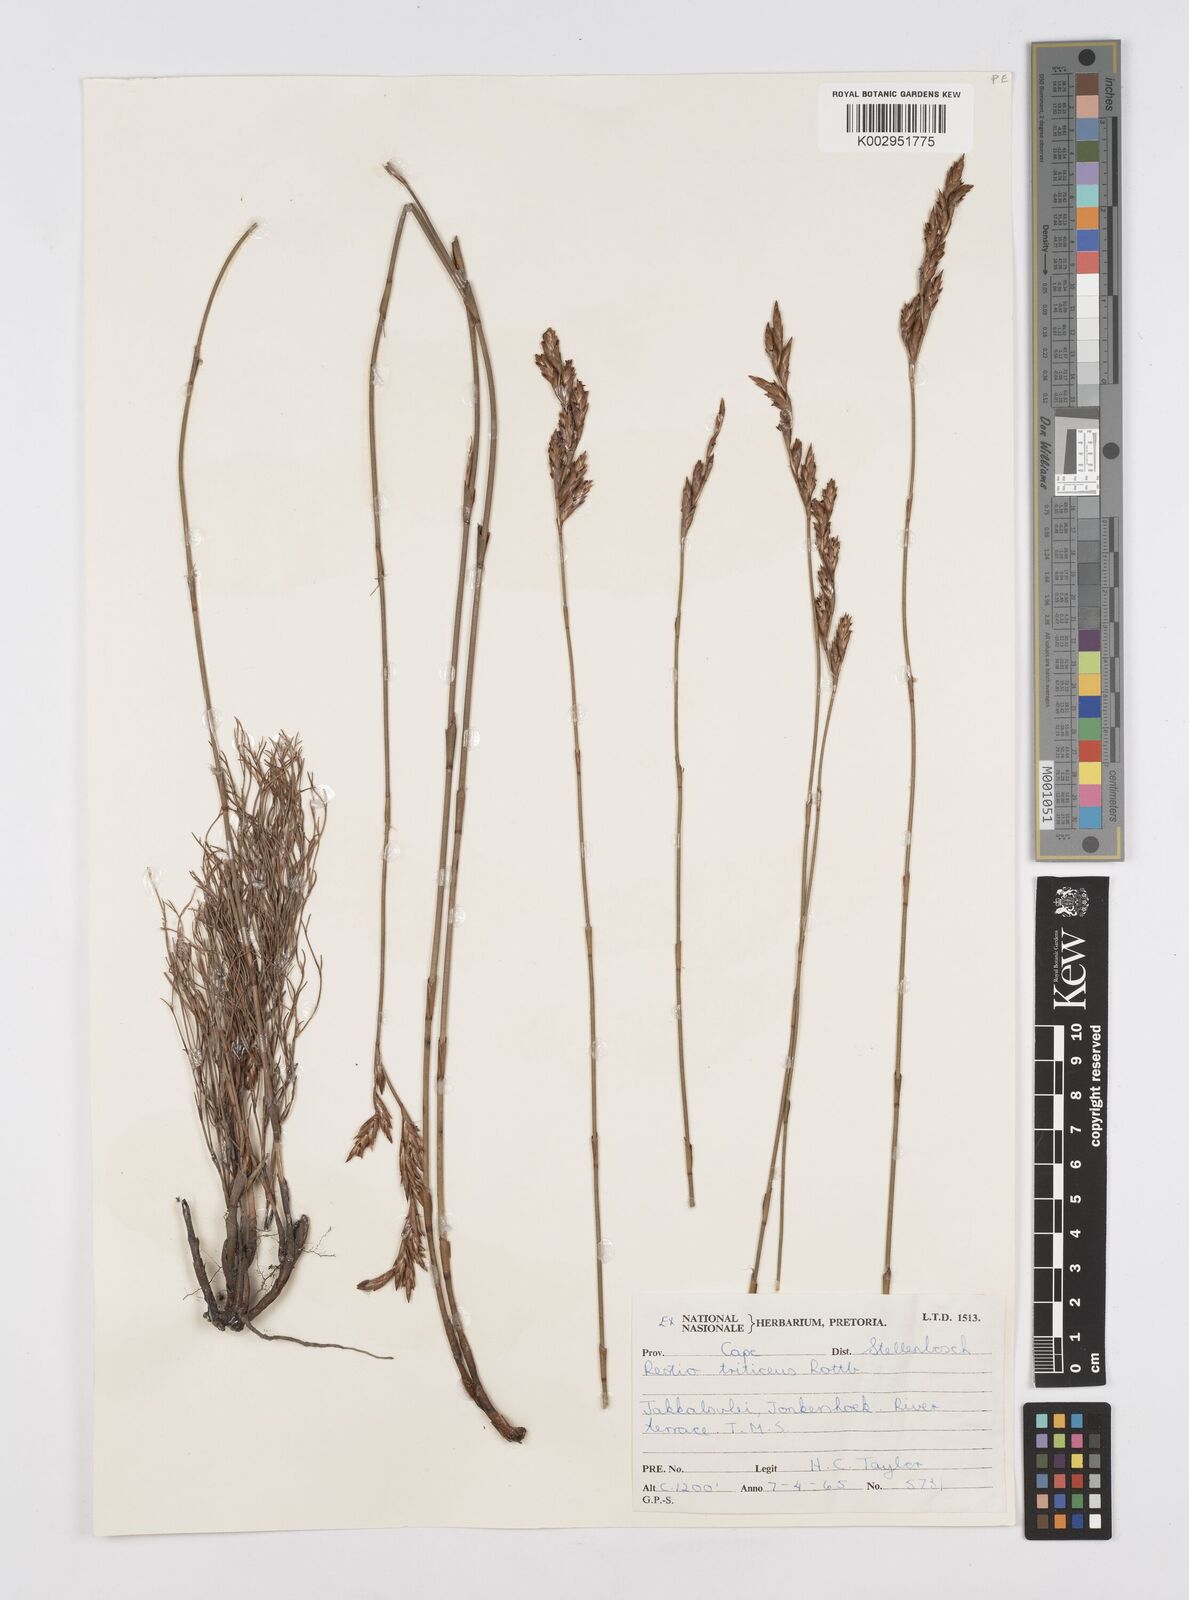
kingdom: Plantae
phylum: Tracheophyta
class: Liliopsida
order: Poales
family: Restionaceae
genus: Restio
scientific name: Restio triticeus
